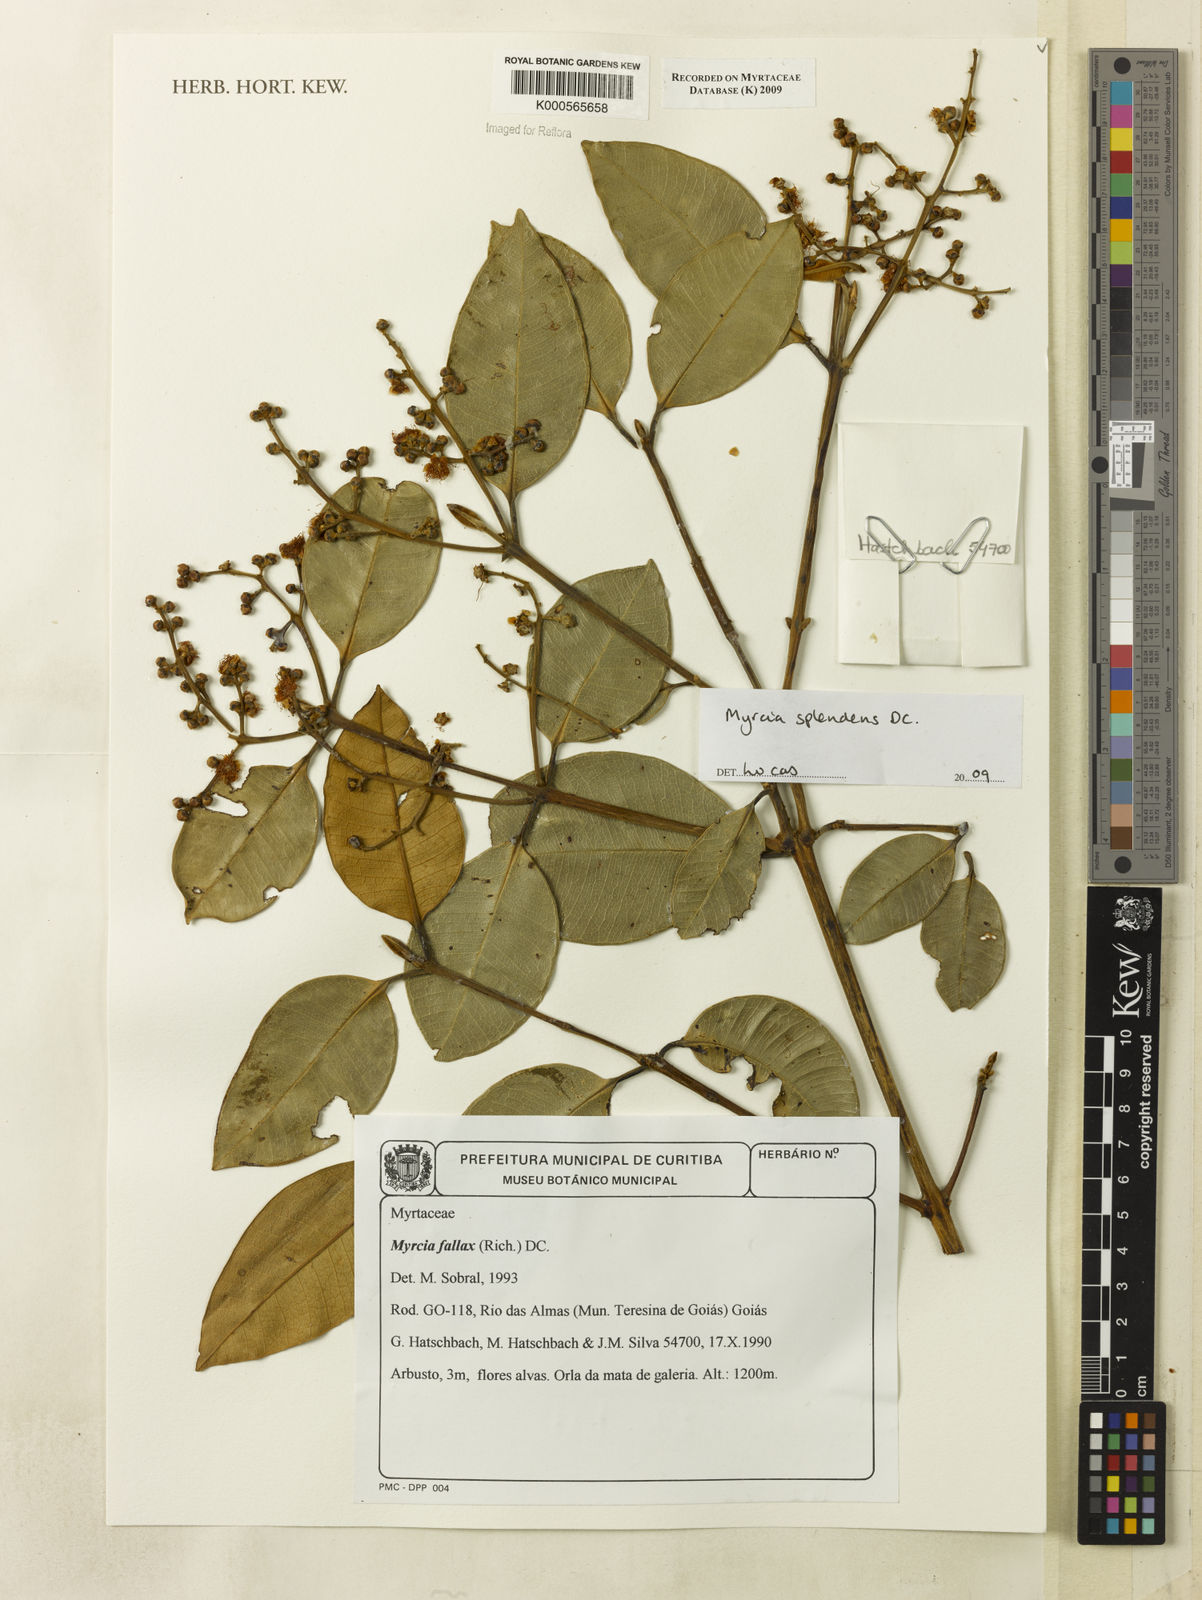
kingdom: Plantae
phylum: Tracheophyta
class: Magnoliopsida
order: Myrtales
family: Myrtaceae
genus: Myrcia
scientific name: Myrcia splendens
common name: Surinam cherry
